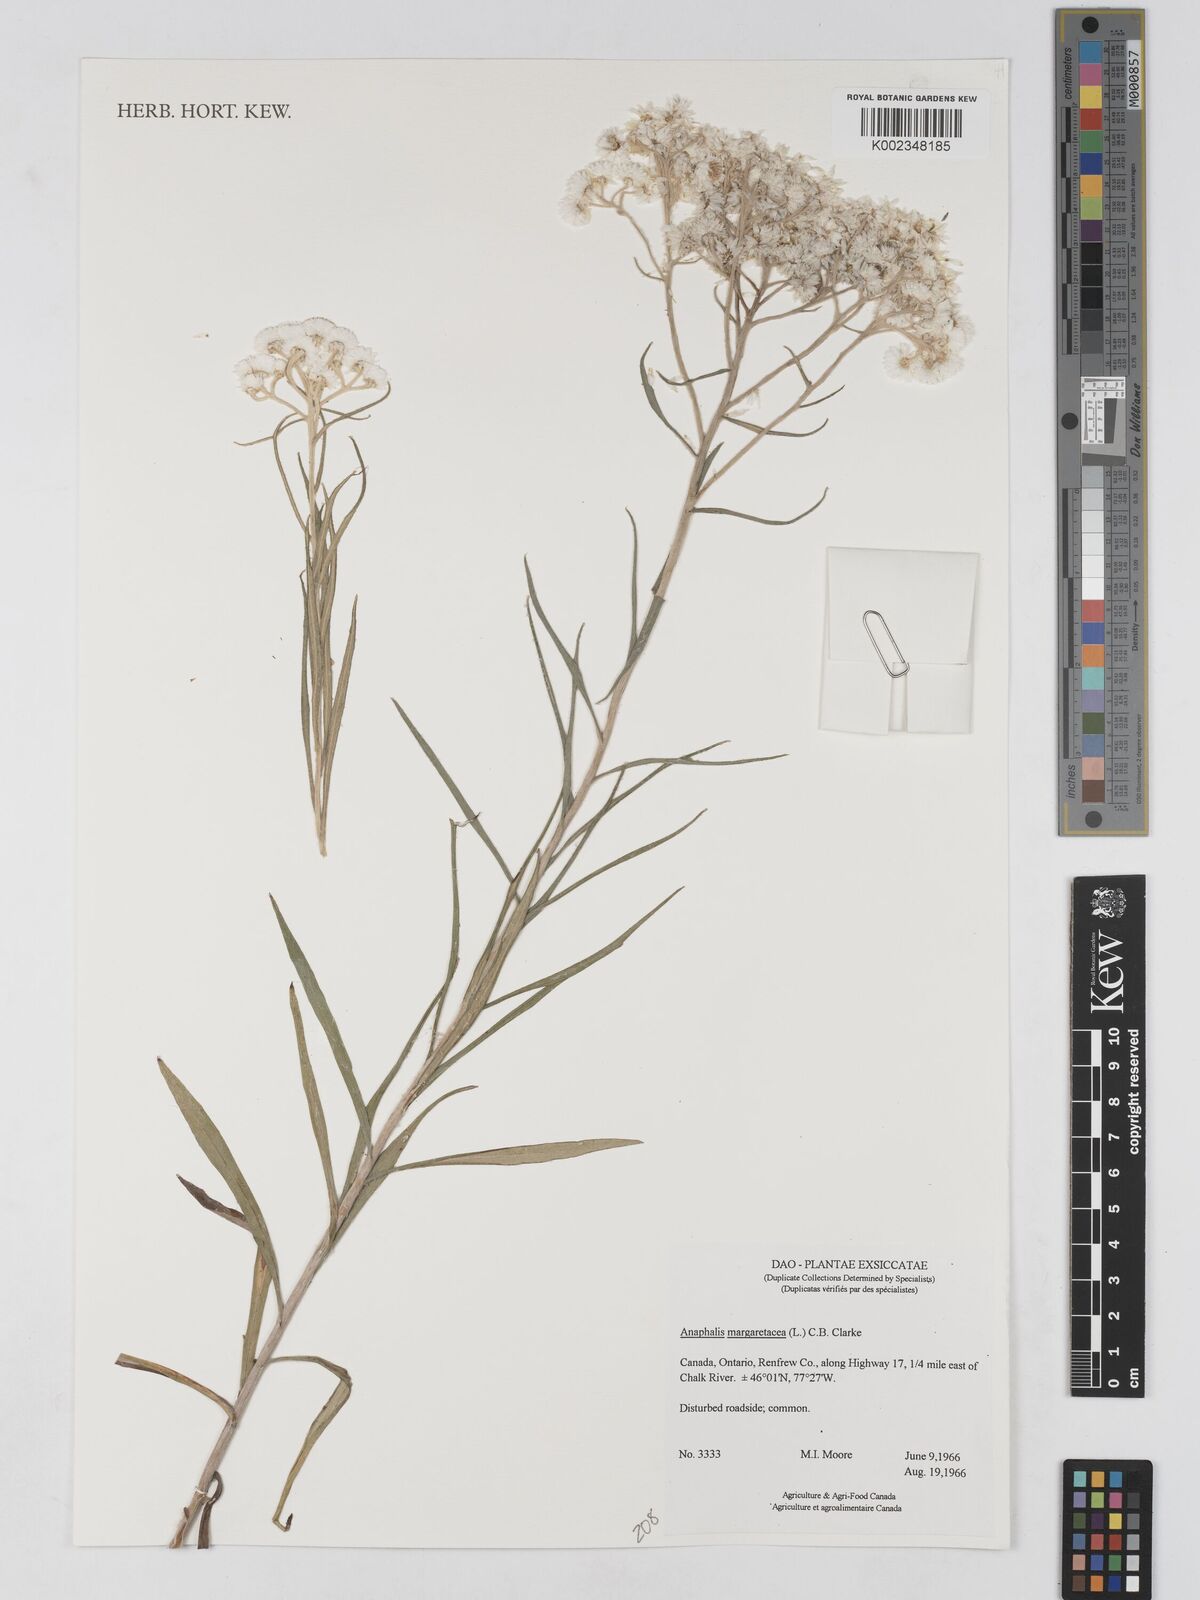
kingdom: Plantae
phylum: Tracheophyta
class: Magnoliopsida
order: Asterales
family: Asteraceae
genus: Anaphalis
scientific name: Anaphalis margaritacea
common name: Pearly everlasting
